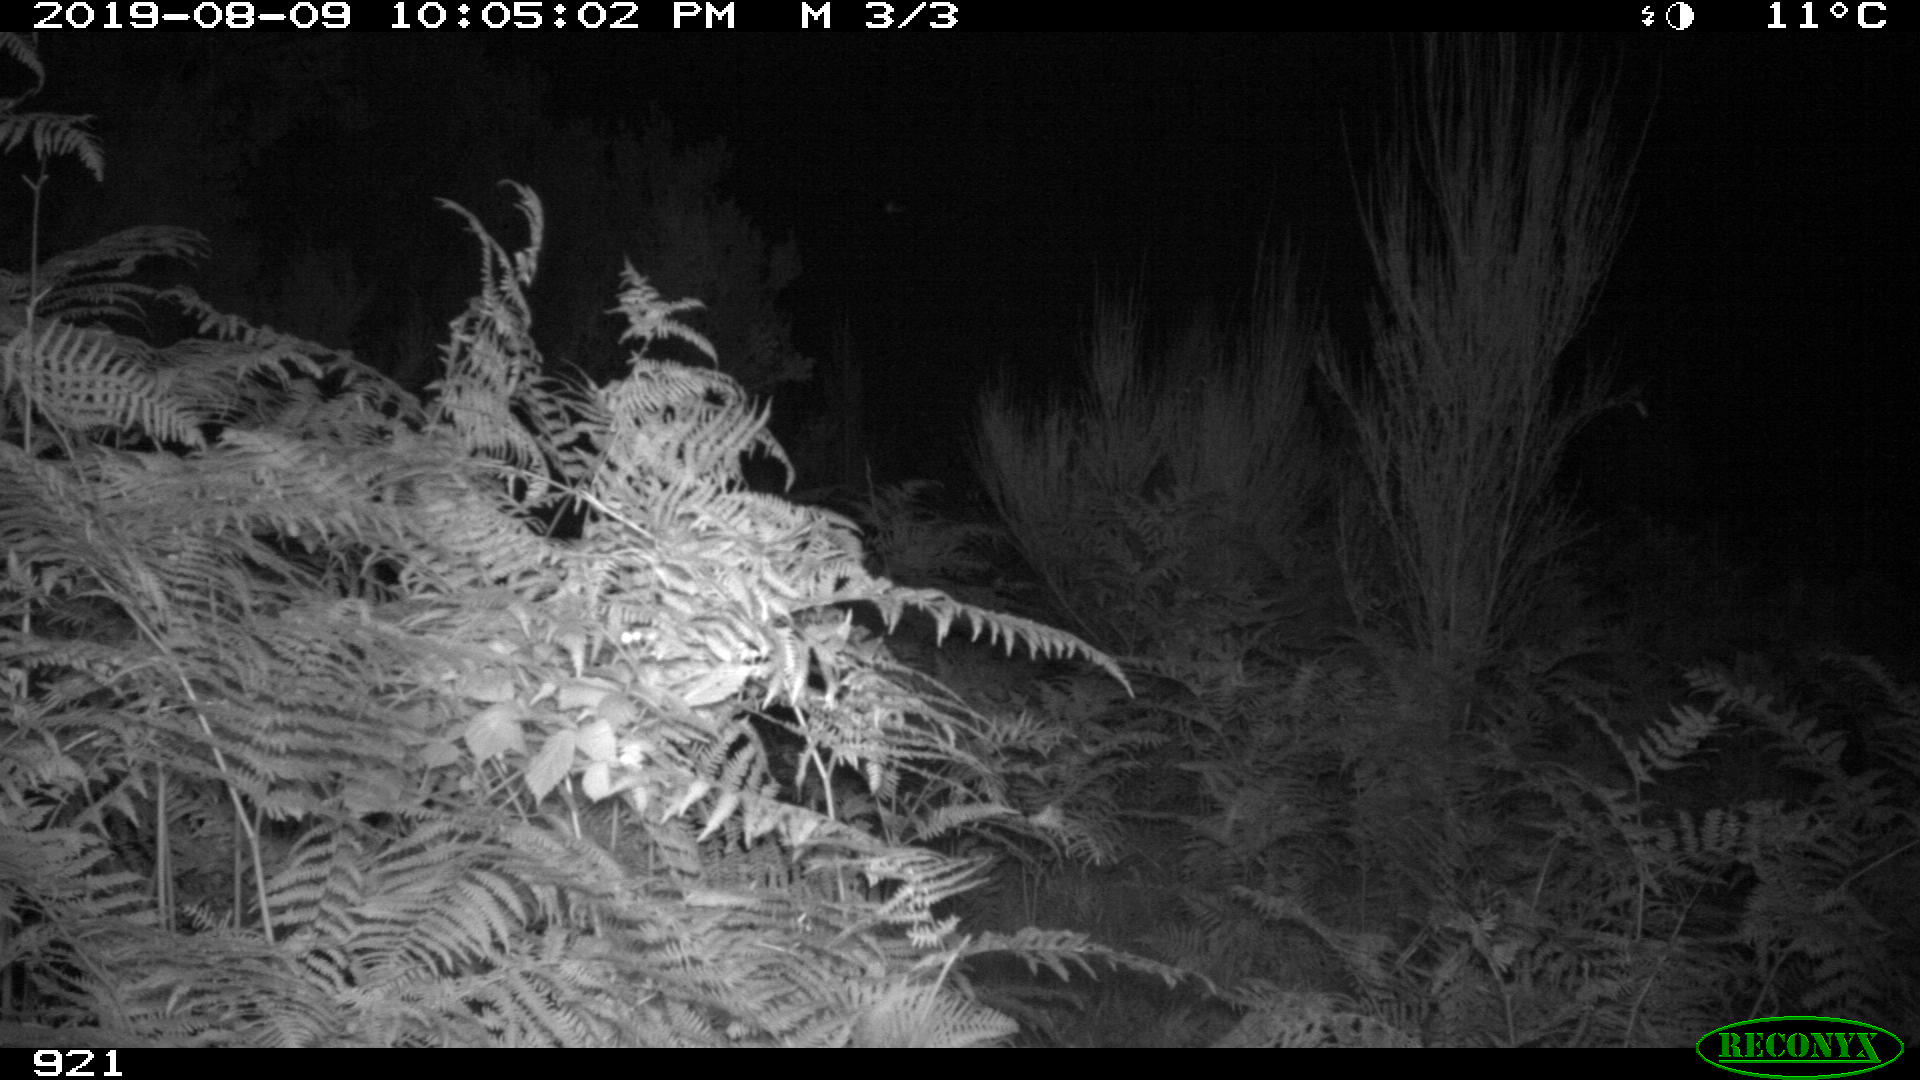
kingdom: Animalia
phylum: Chordata
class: Mammalia
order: Artiodactyla
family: Suidae
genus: Sus
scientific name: Sus scrofa
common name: Wild boar
